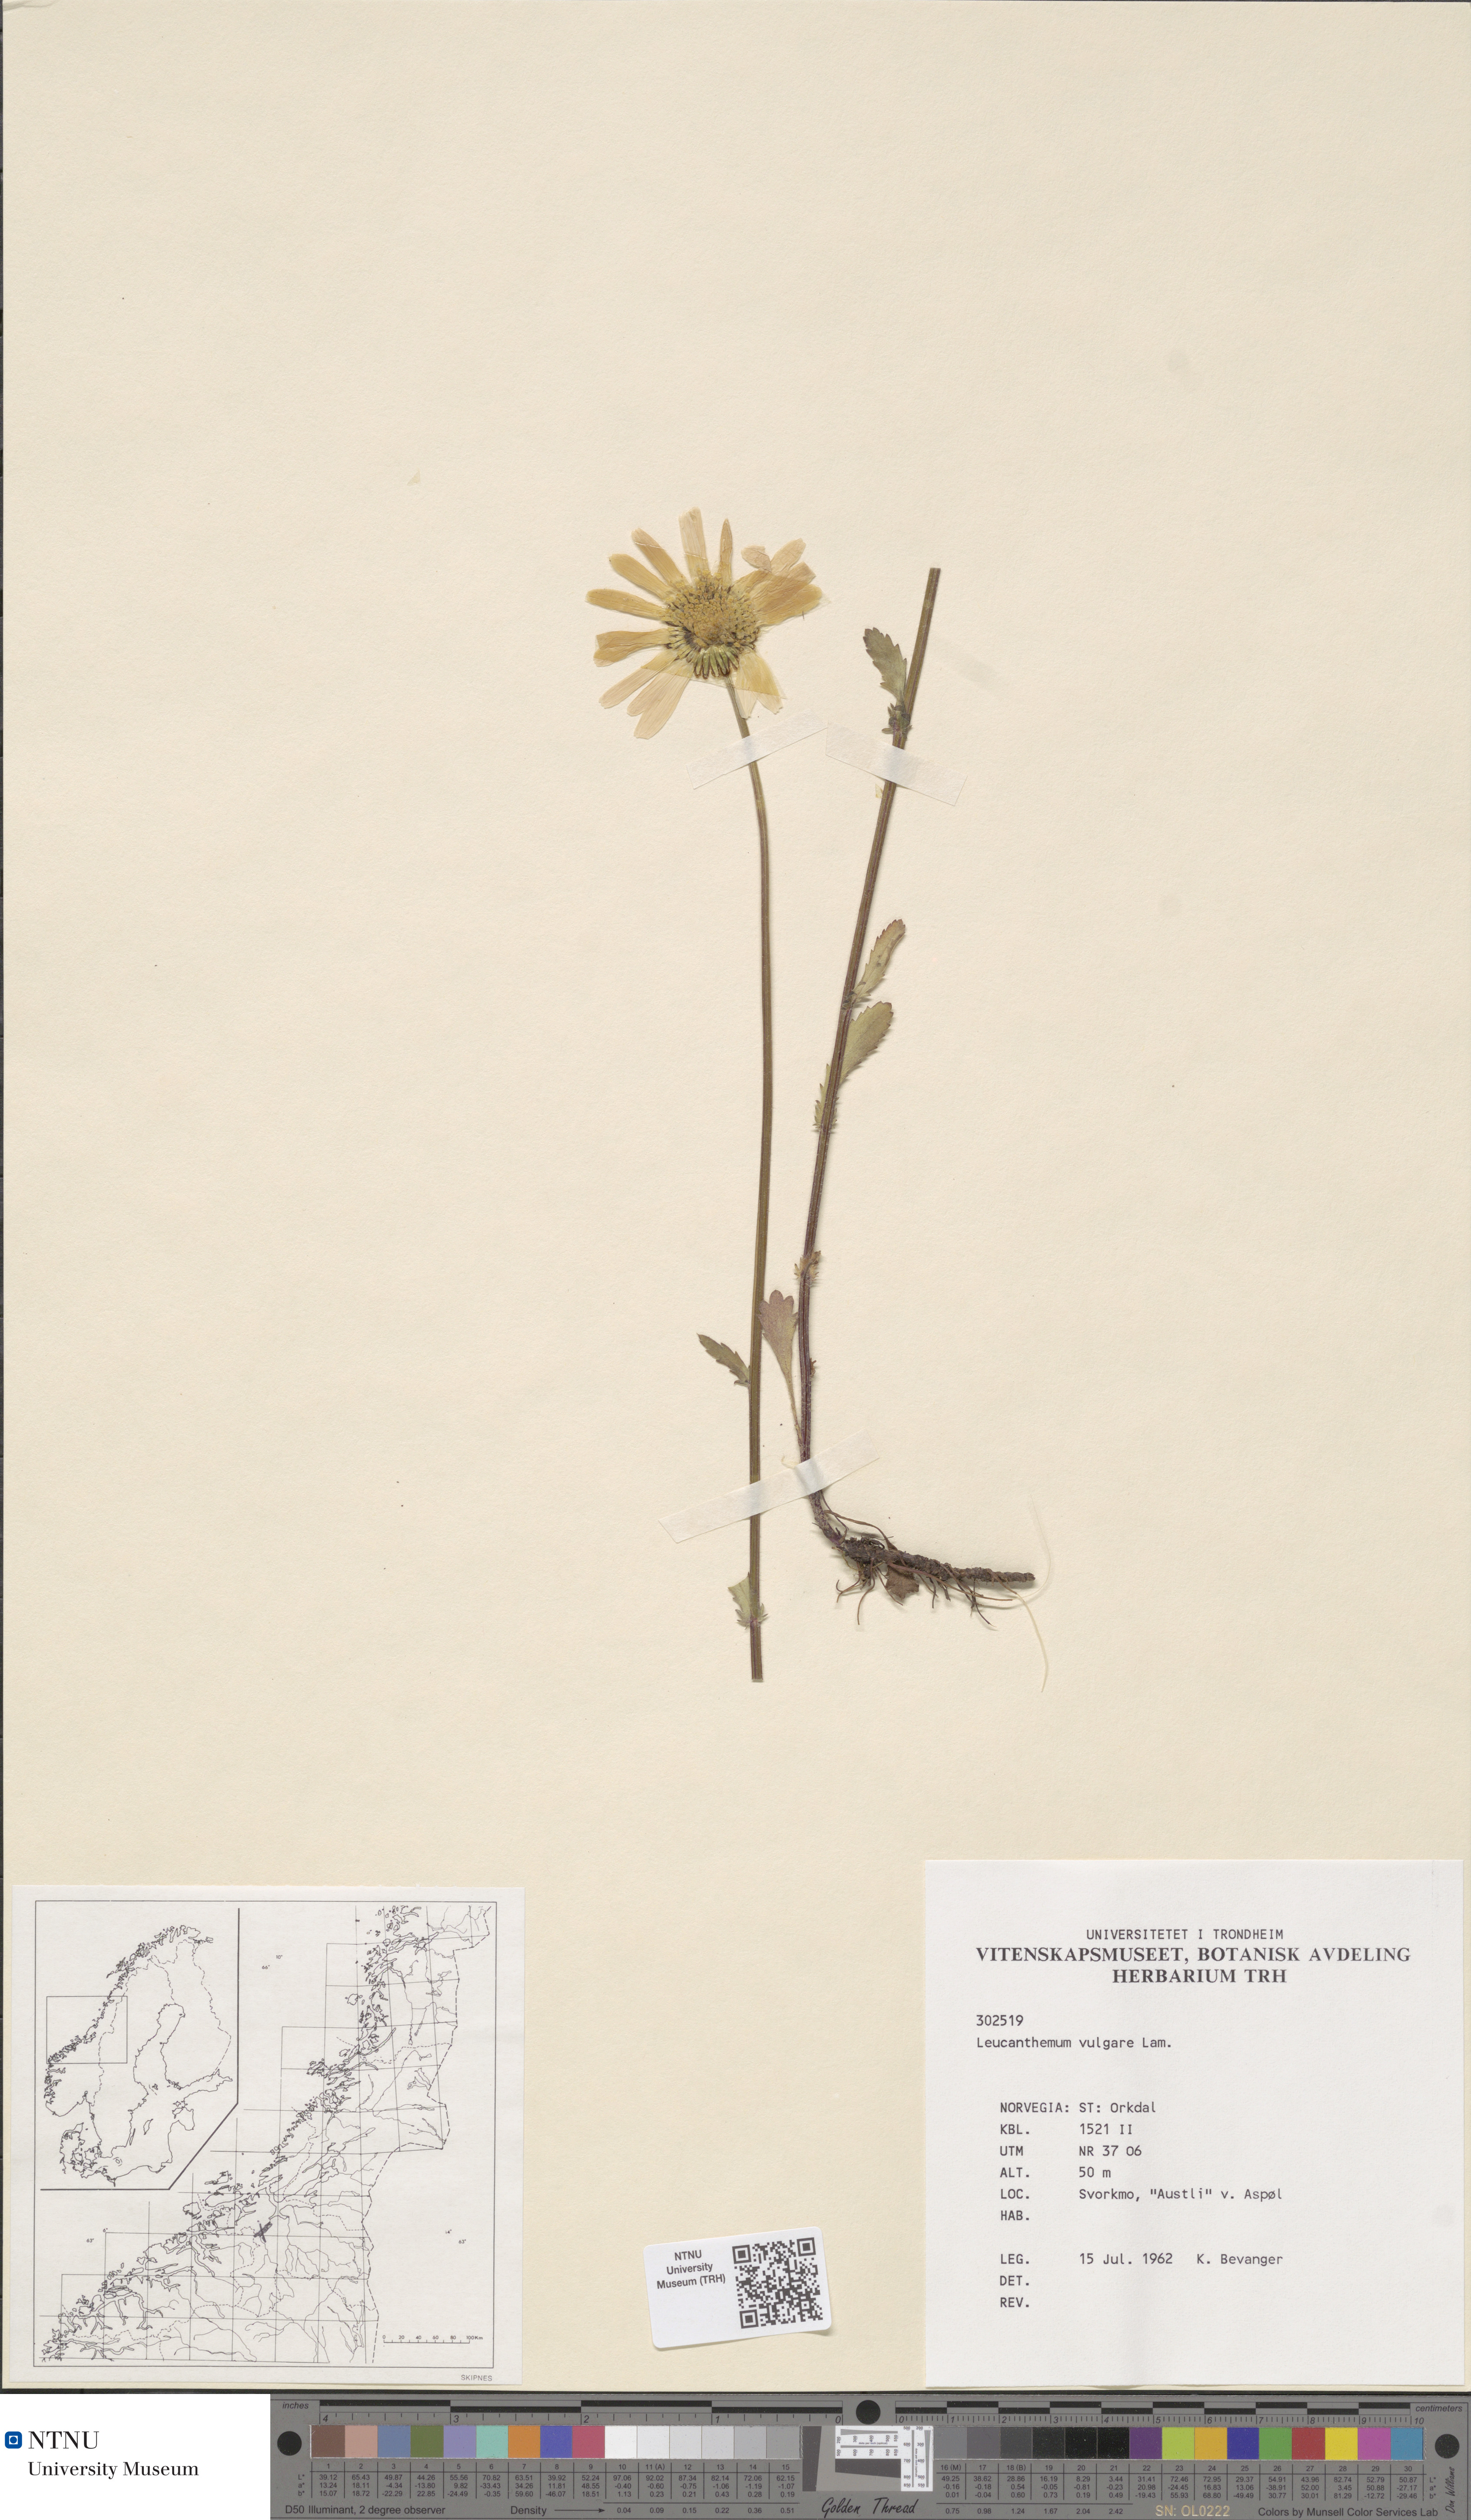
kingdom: Plantae
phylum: Tracheophyta
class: Magnoliopsida
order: Asterales
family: Asteraceae
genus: Leucanthemum
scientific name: Leucanthemum vulgare
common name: Oxeye daisy
